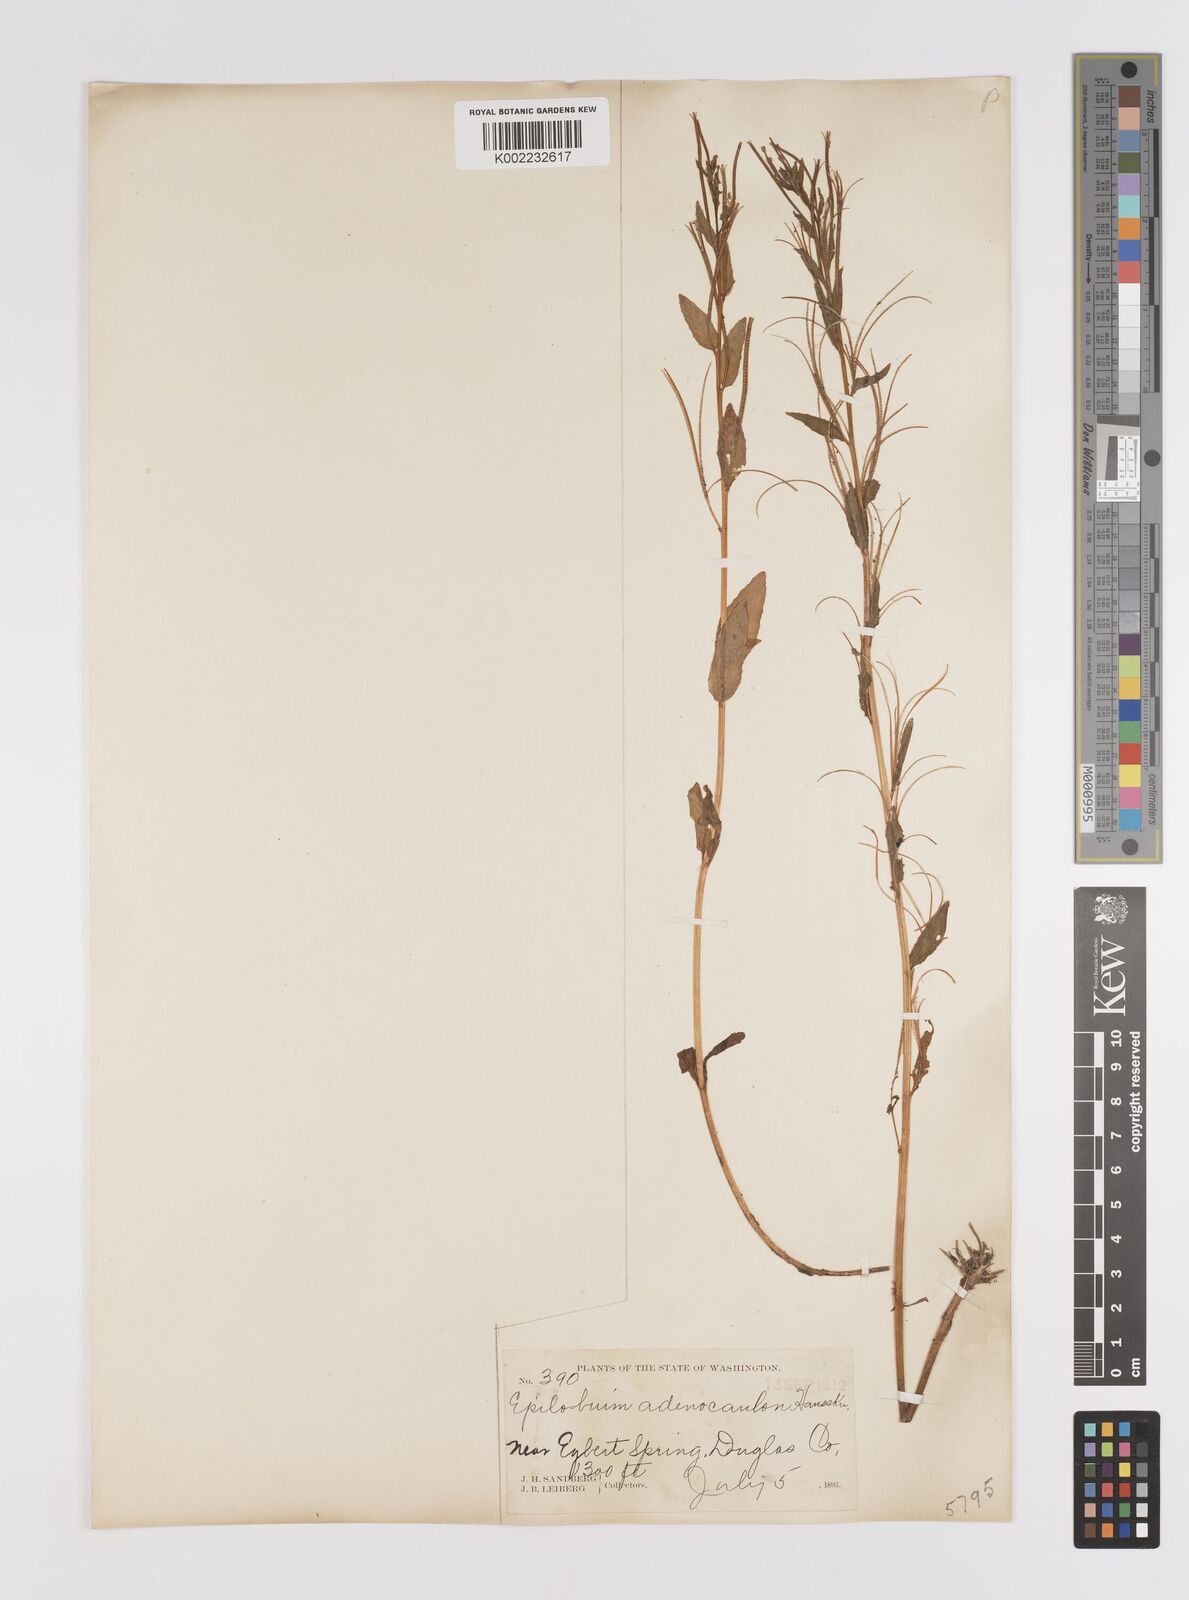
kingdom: Plantae
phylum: Tracheophyta
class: Magnoliopsida
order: Myrtales
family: Onagraceae
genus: Epilobium
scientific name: Epilobium ciliatum
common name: American willowherb
